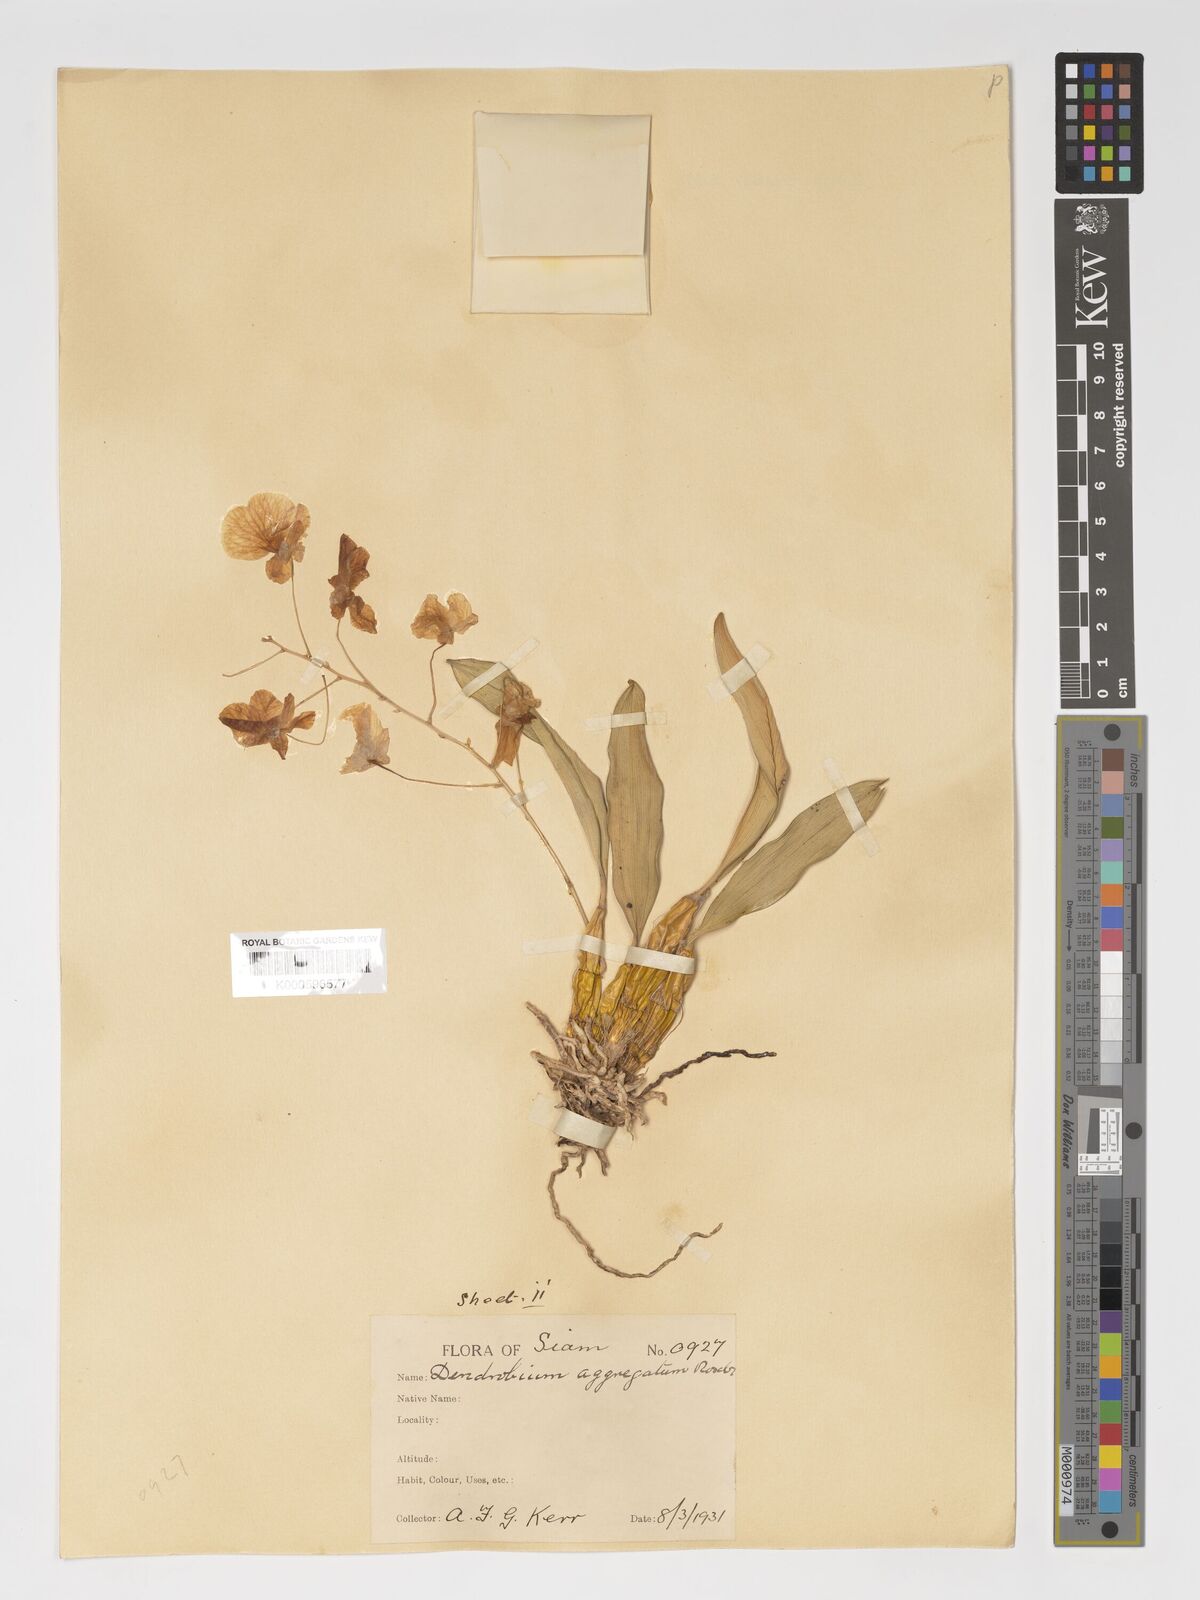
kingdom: Plantae
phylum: Tracheophyta
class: Liliopsida
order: Asparagales
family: Orchidaceae
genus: Dendrobium
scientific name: Dendrobium lindleyi
